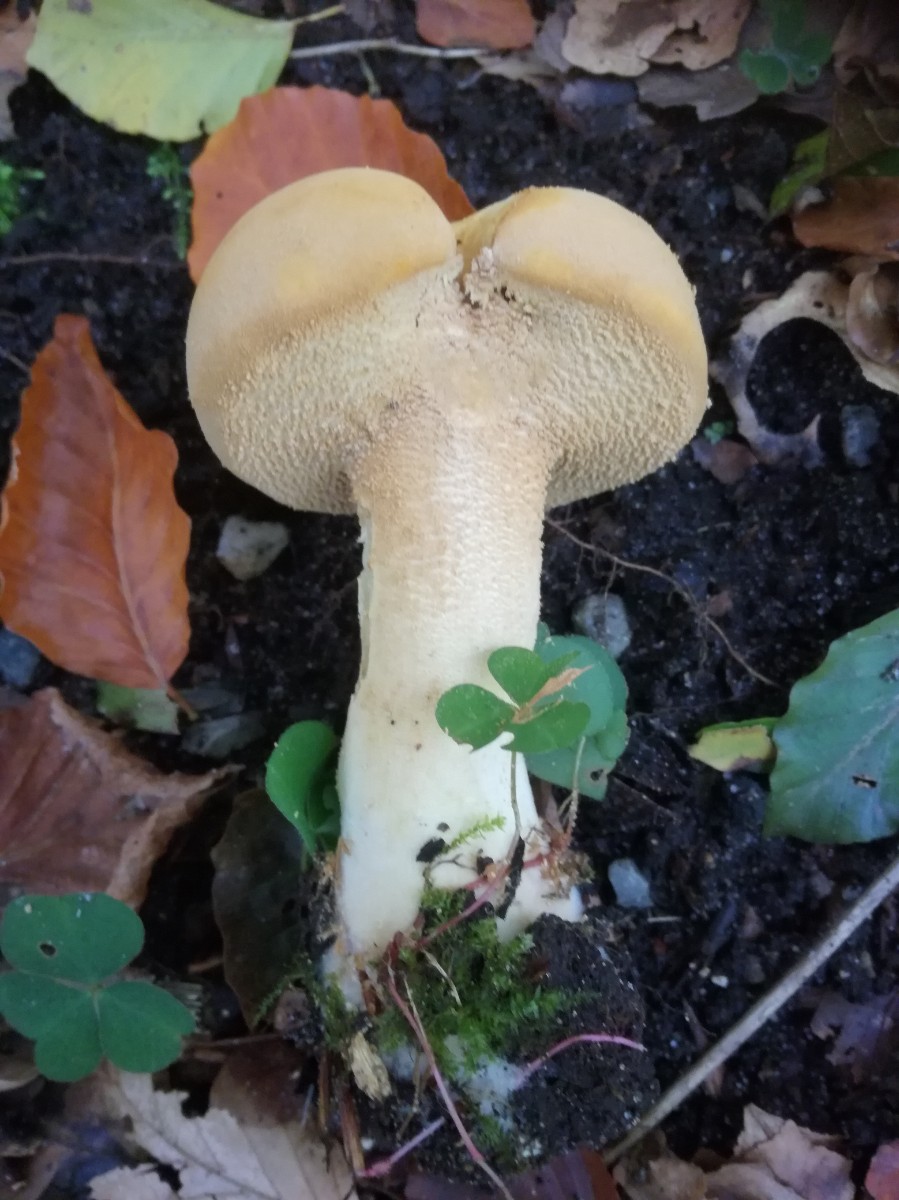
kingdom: Fungi
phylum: Basidiomycota
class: Agaricomycetes
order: Agaricales
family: Tricholomataceae
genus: Phaeolepiota
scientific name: Phaeolepiota aurea
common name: gyldenhat
